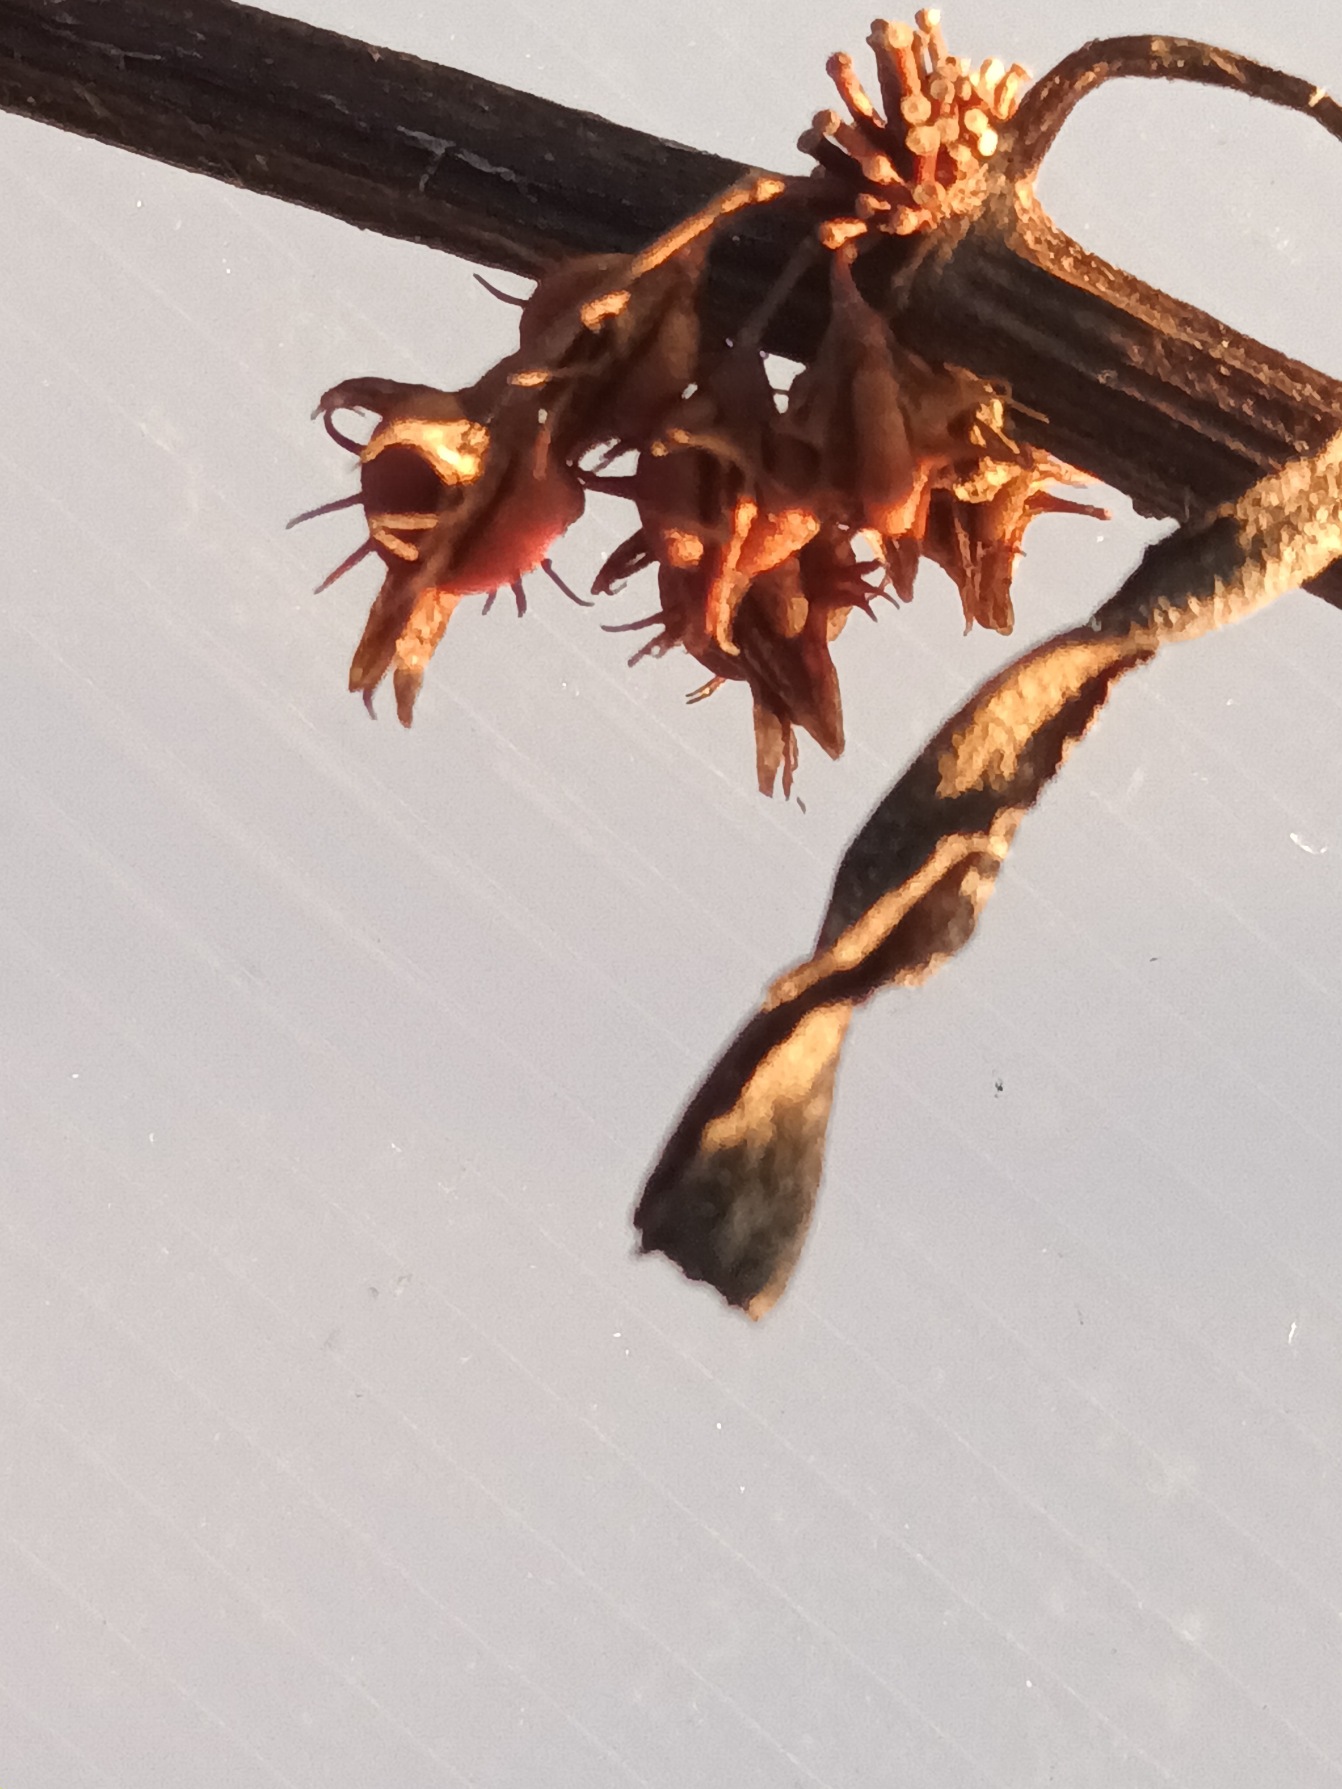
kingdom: Plantae
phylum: Tracheophyta
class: Magnoliopsida
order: Caryophyllales
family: Polygonaceae
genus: Rumex
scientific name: Rumex palustris
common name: Sump-skræppe
